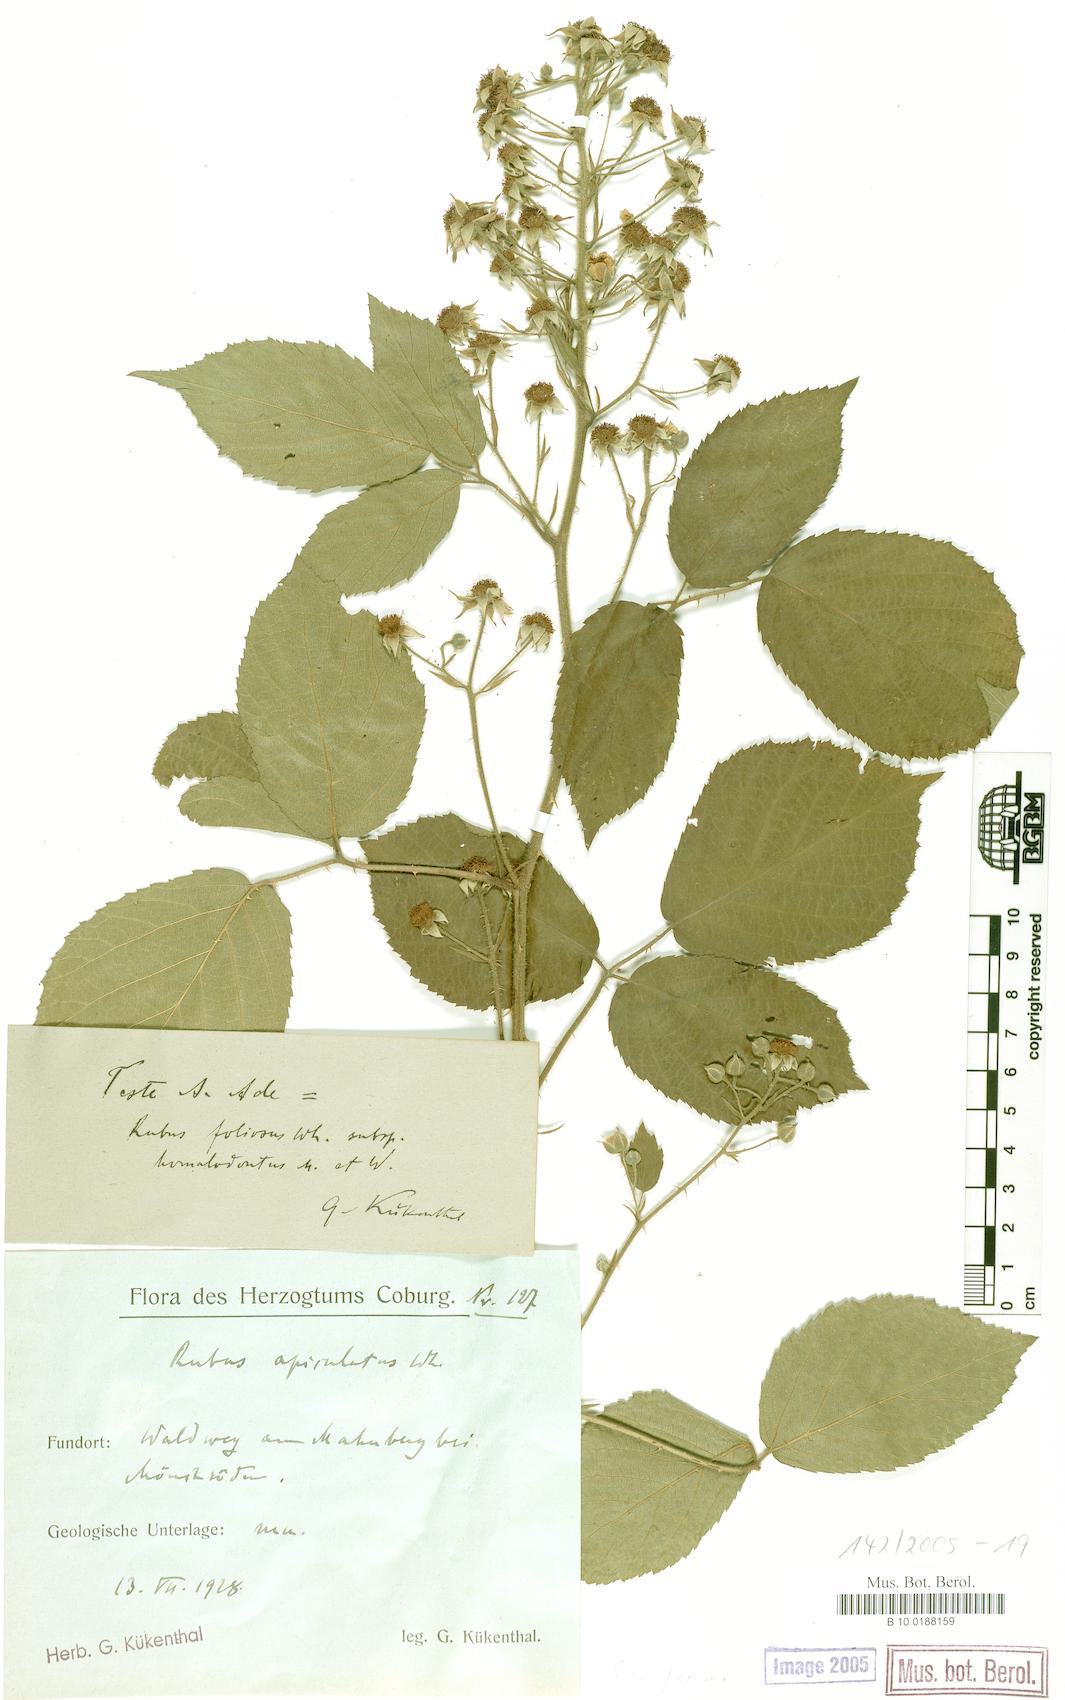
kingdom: Plantae
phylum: Tracheophyta
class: Magnoliopsida
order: Rosales
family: Rosaceae
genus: Rubus
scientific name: Rubus silvae-thuringiae
